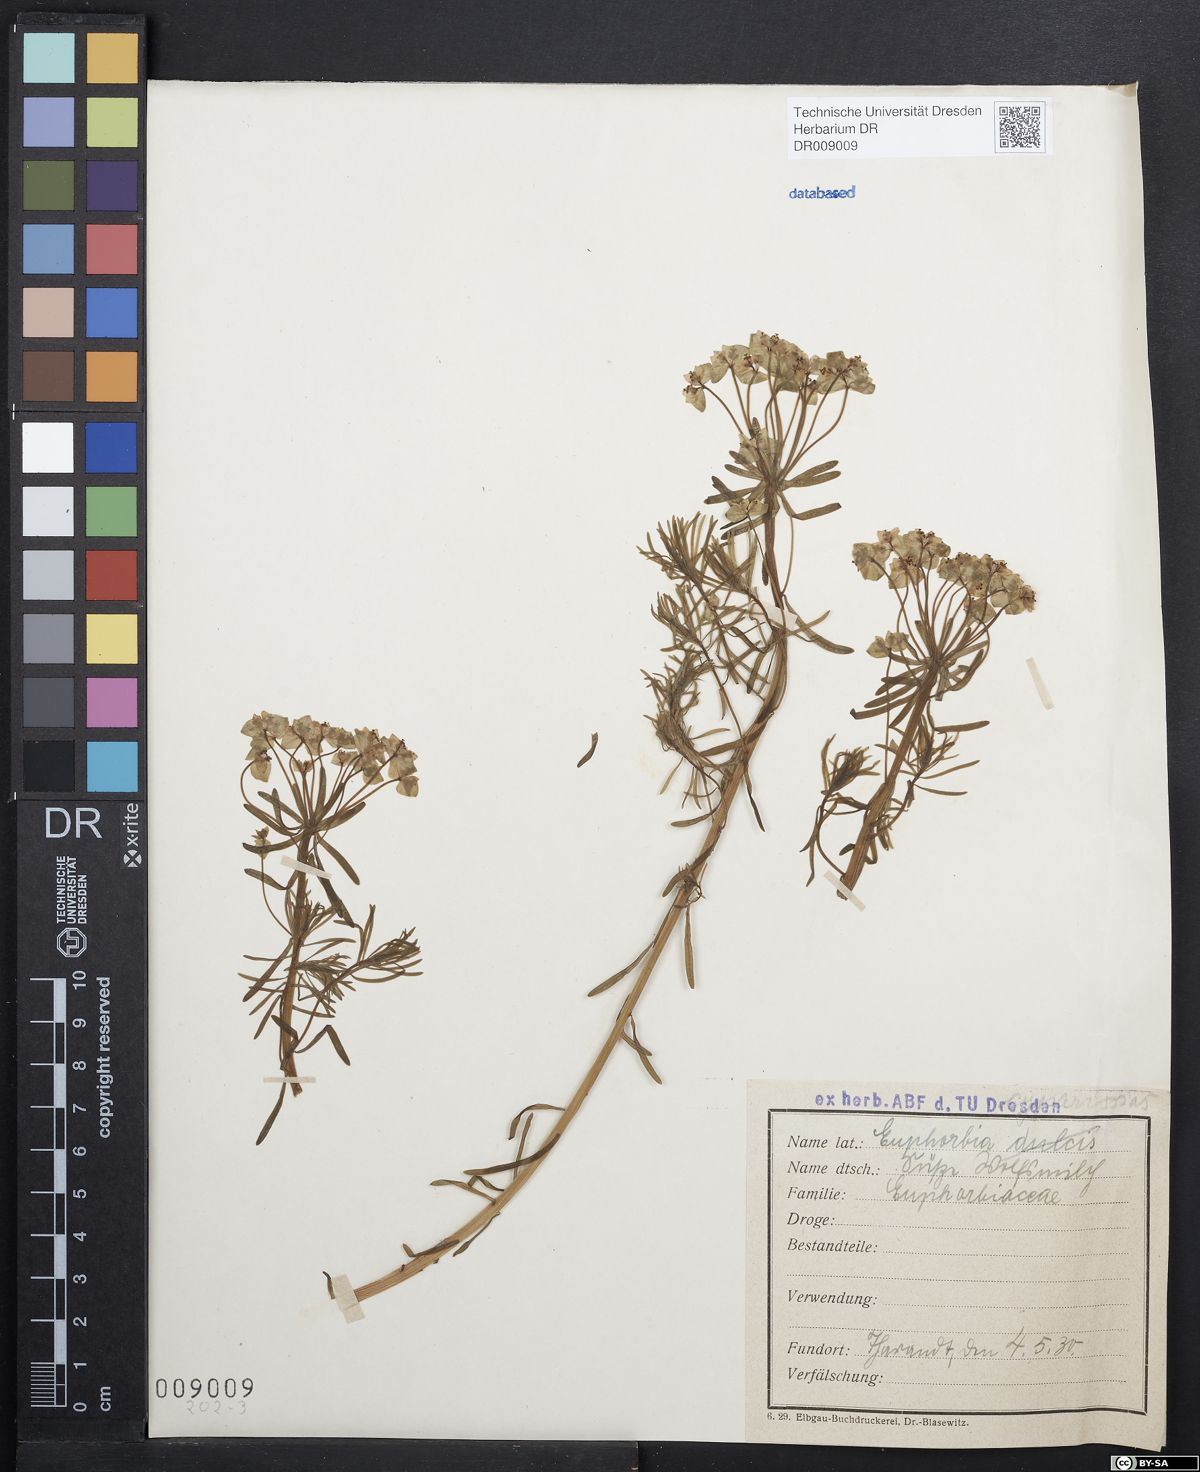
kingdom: Plantae
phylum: Tracheophyta
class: Magnoliopsida
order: Malpighiales
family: Euphorbiaceae
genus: Euphorbia
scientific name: Euphorbia cyparissias
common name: Cypress spurge
